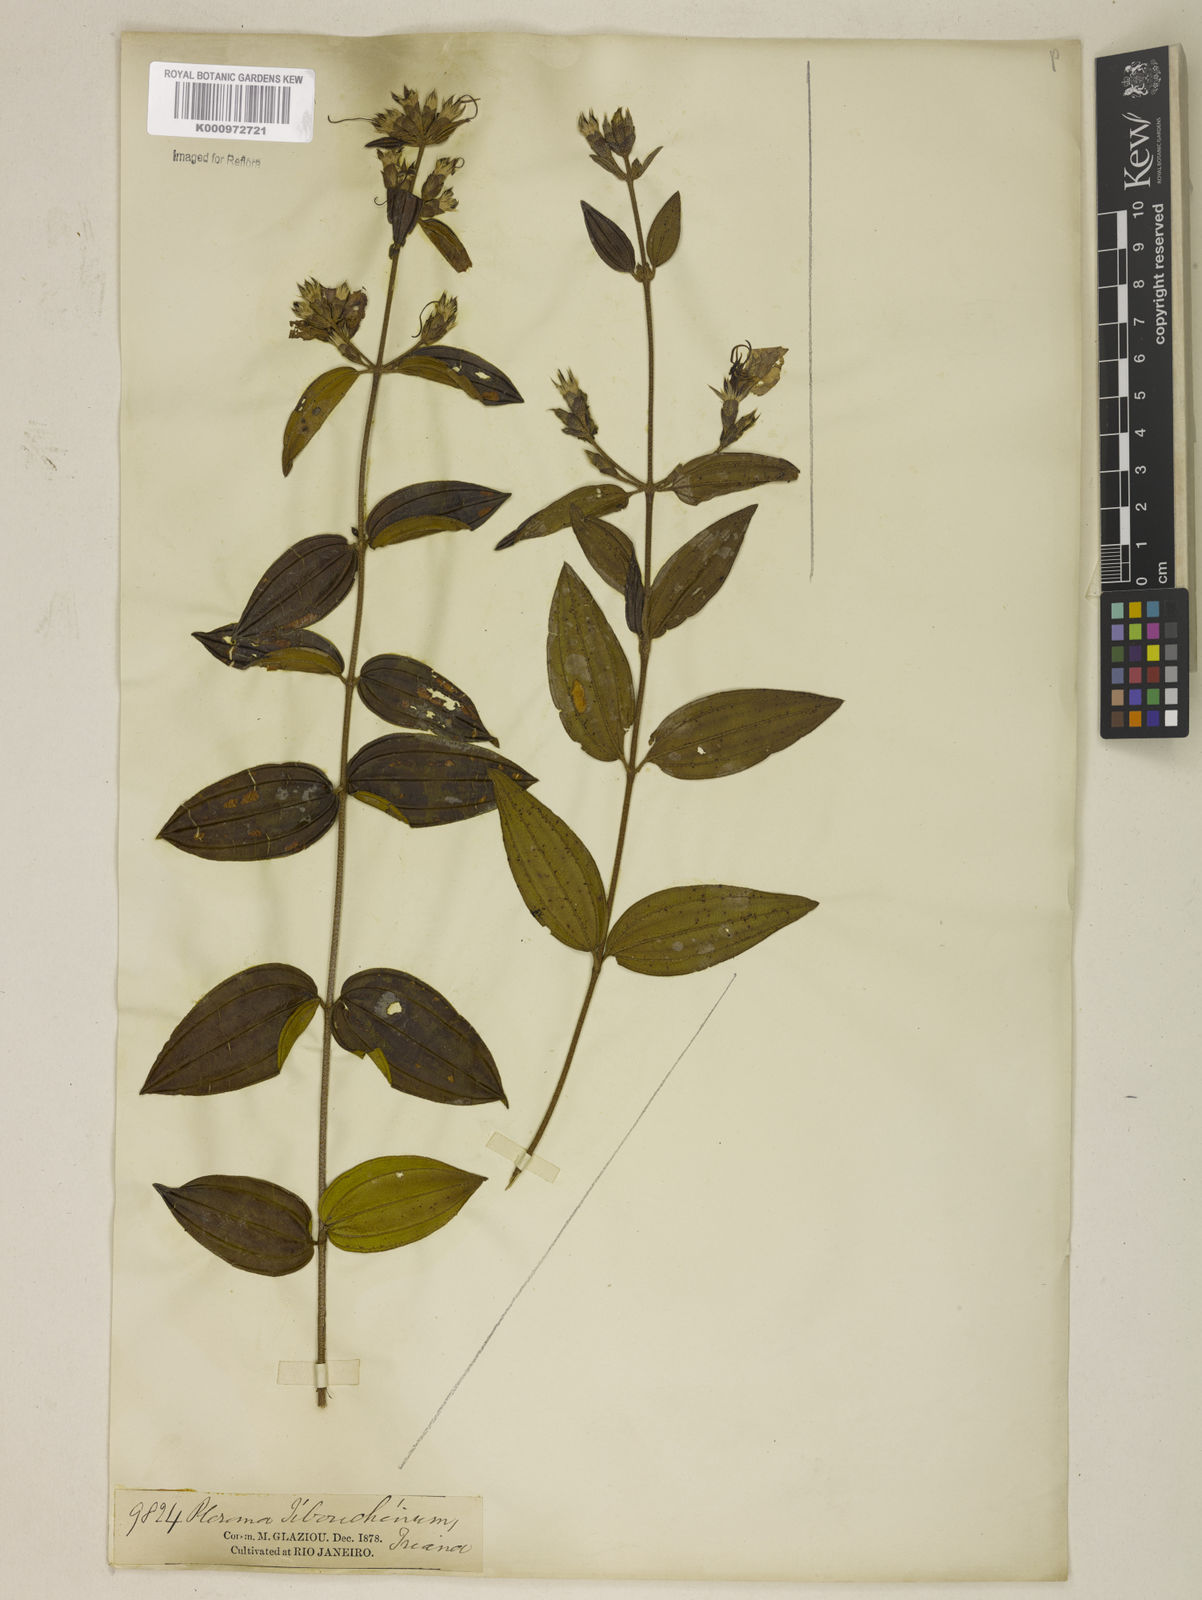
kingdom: Plantae
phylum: Tracheophyta
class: Magnoliopsida
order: Myrtales
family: Melastomataceae
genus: Tibouchina
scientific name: Tibouchina aspera
